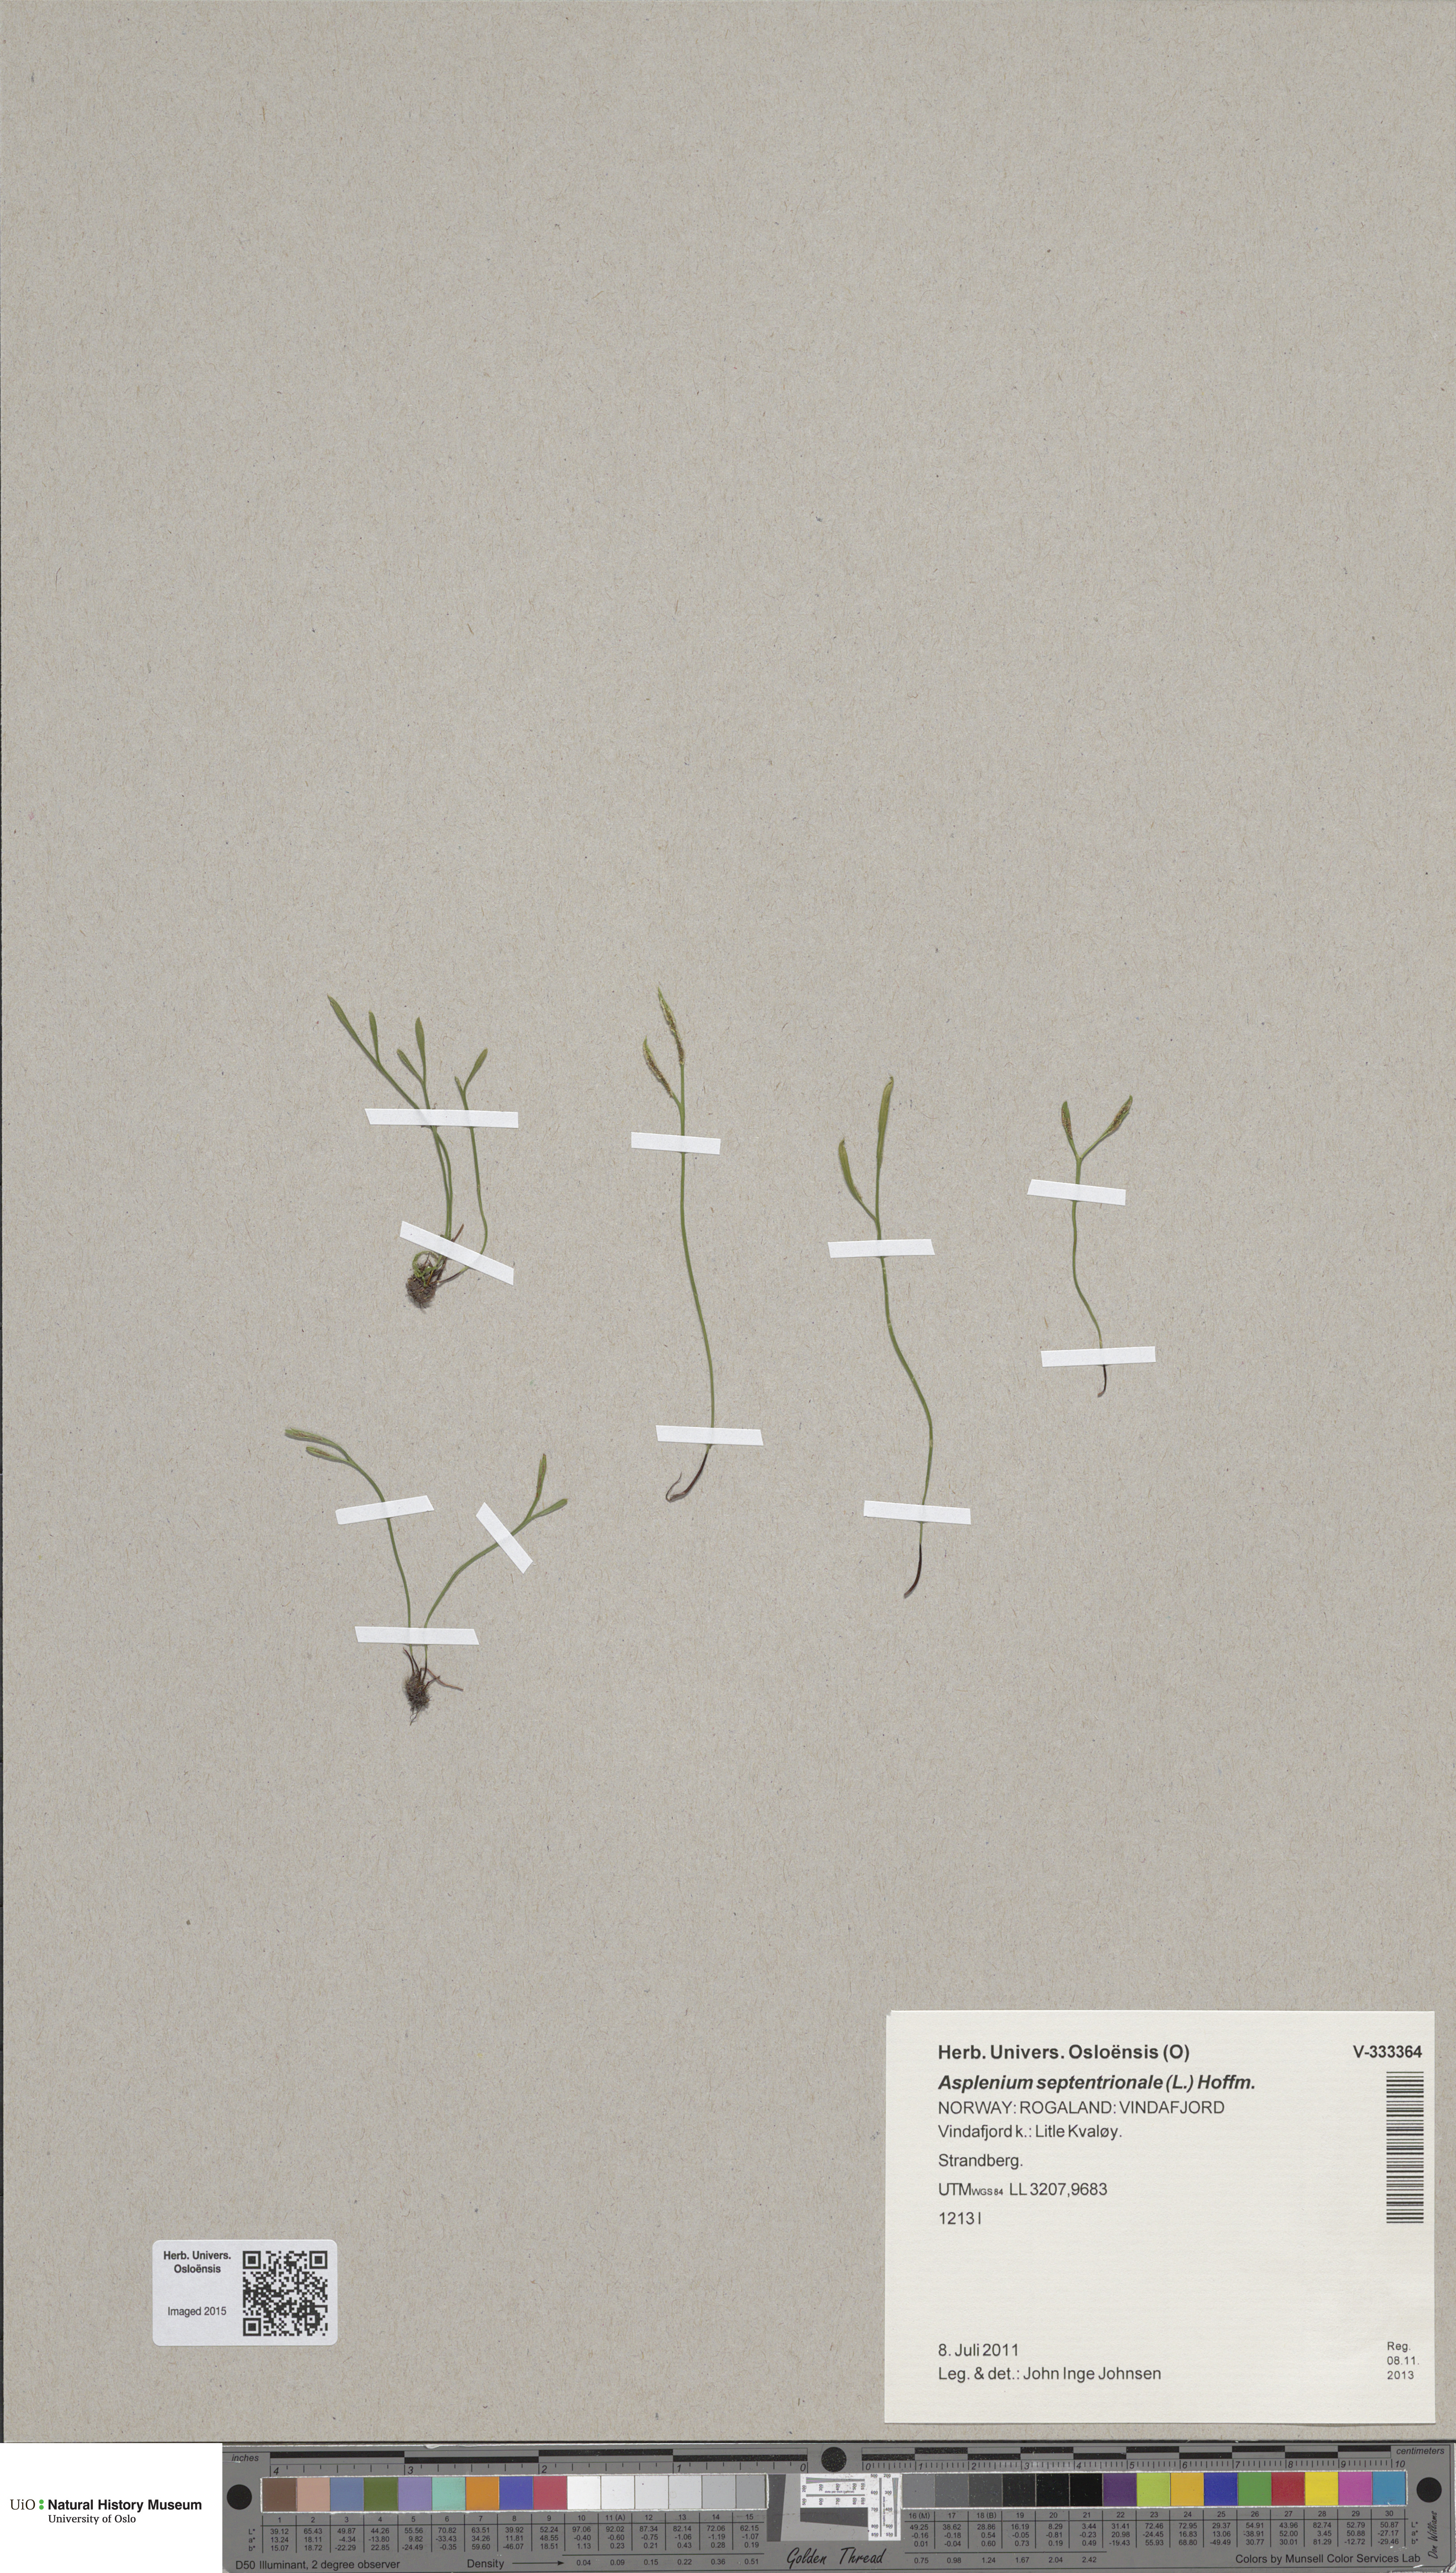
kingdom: Plantae
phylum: Tracheophyta
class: Polypodiopsida
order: Polypodiales
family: Aspleniaceae
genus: Asplenium
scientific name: Asplenium septentrionale
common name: Forked spleenwort
